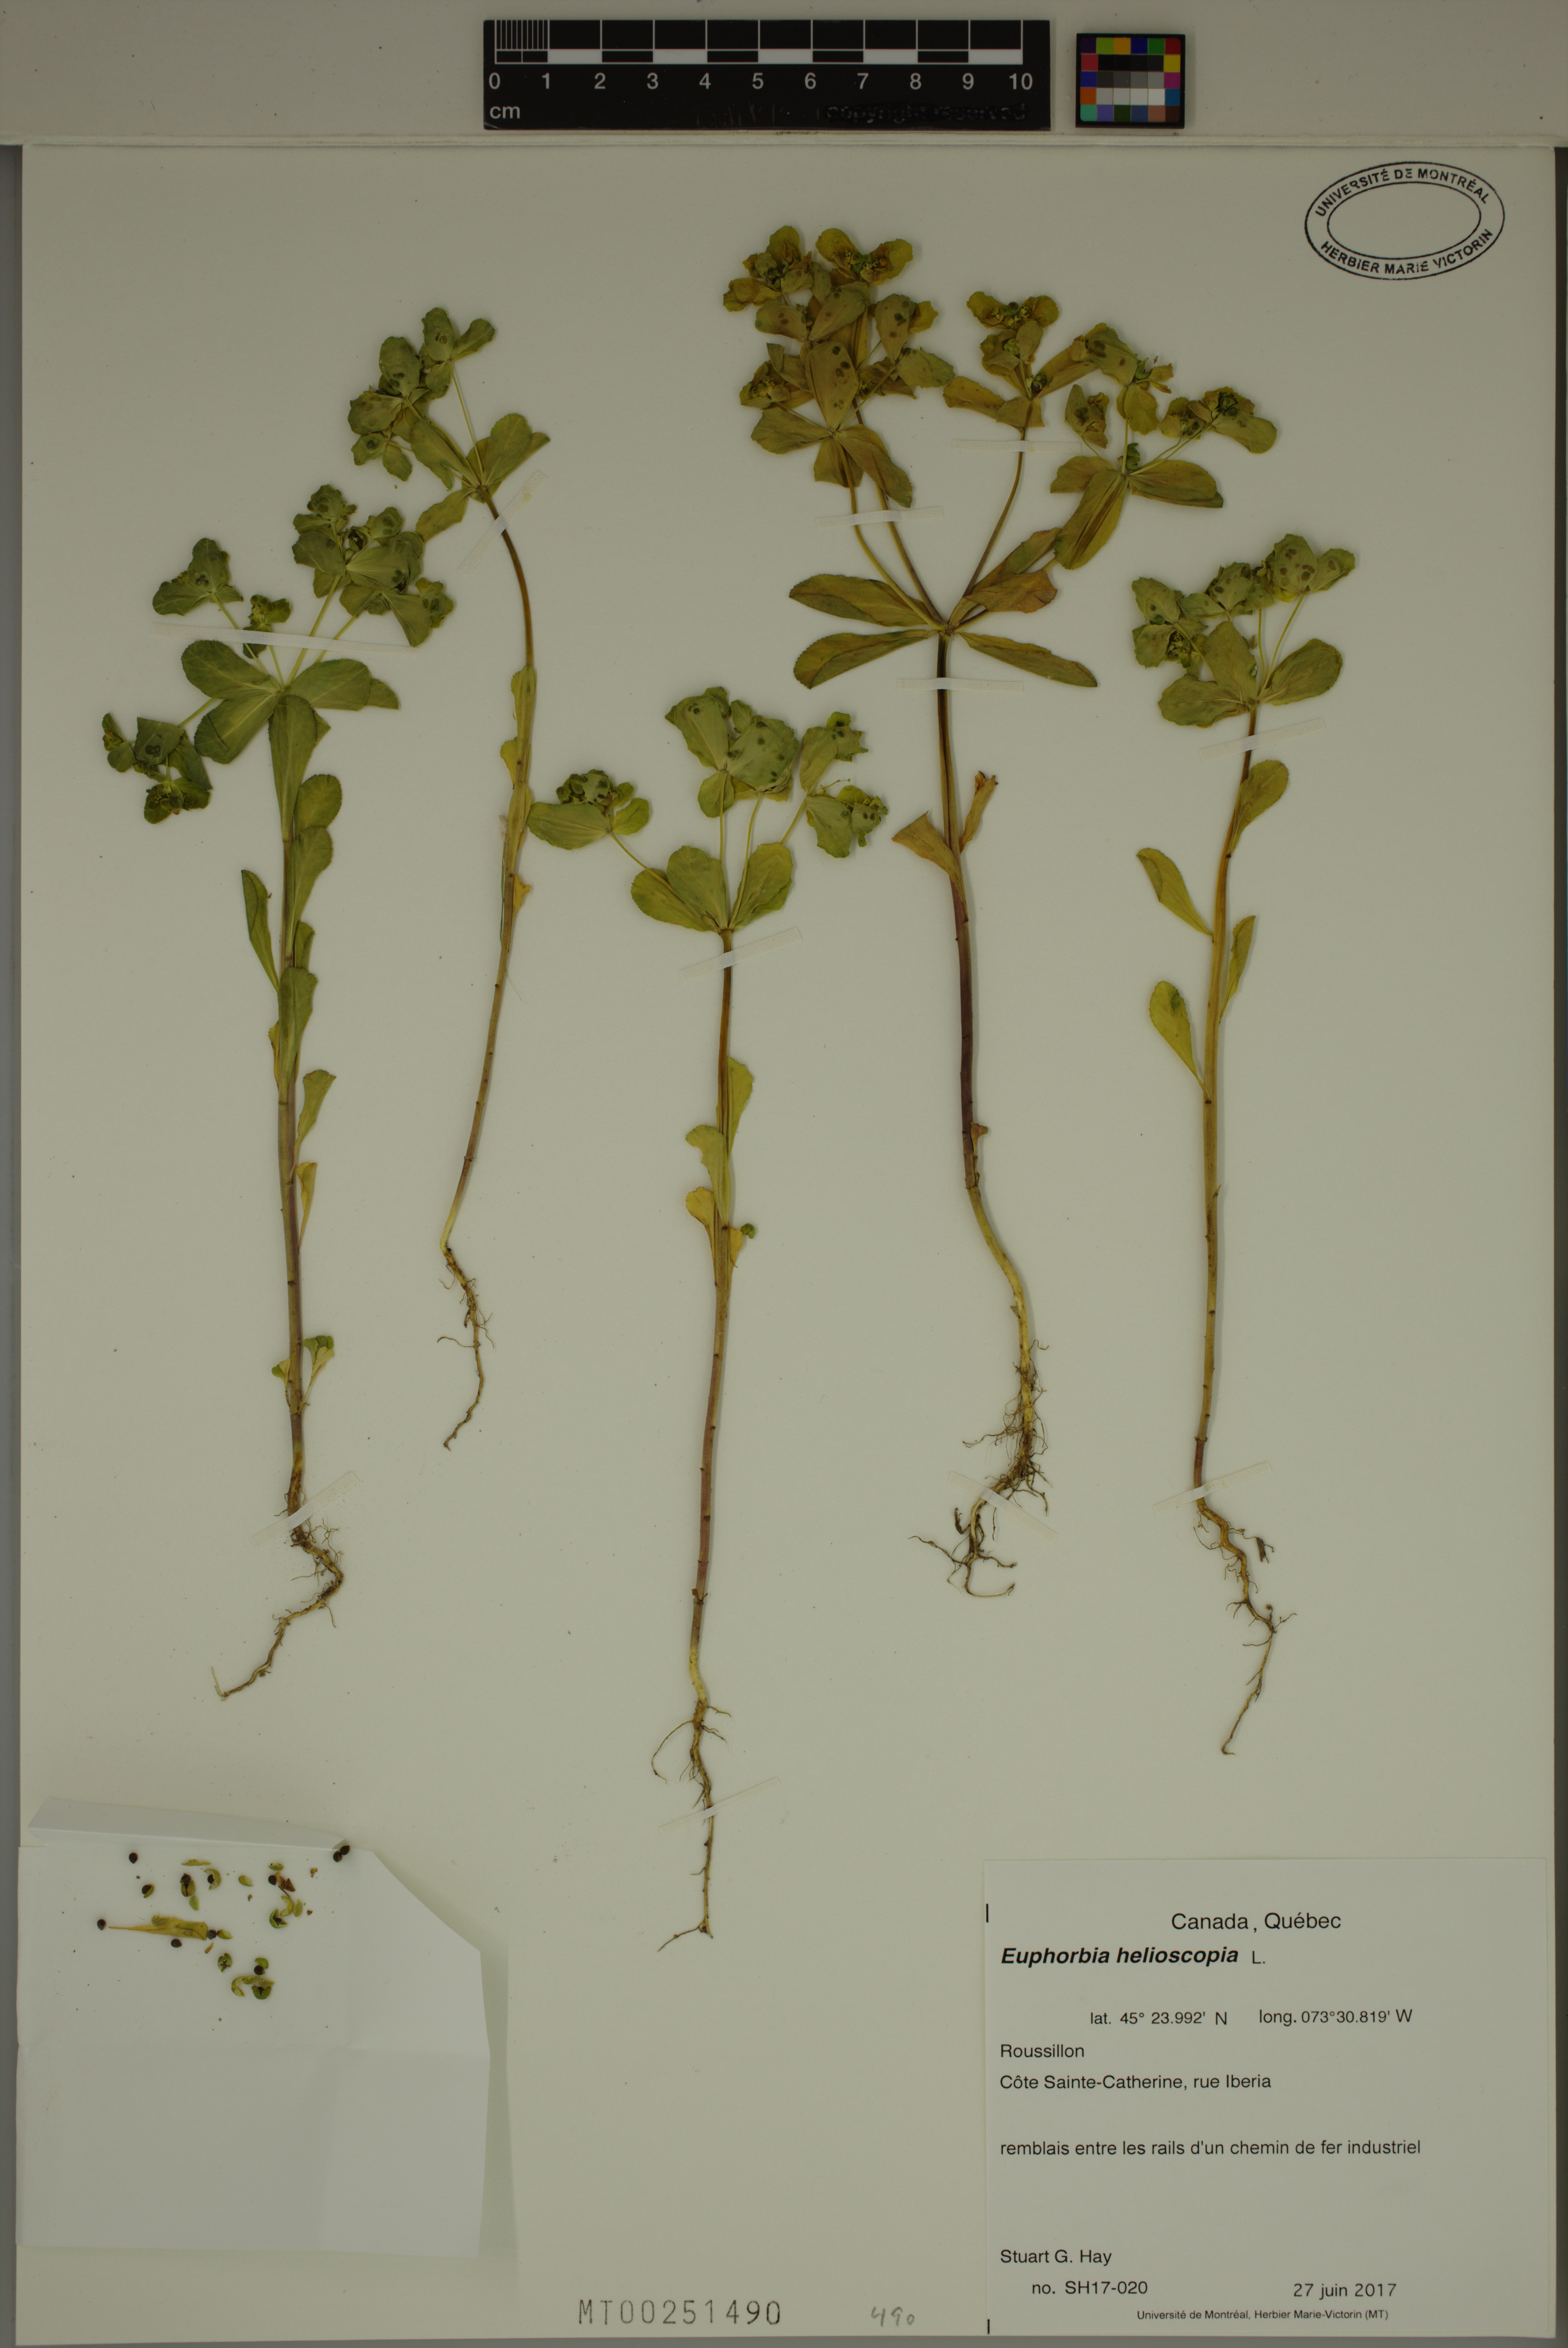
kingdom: Plantae
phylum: Tracheophyta
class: Magnoliopsida
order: Malpighiales
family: Euphorbiaceae
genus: Euphorbia
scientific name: Euphorbia helioscopia
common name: Sun spurge
